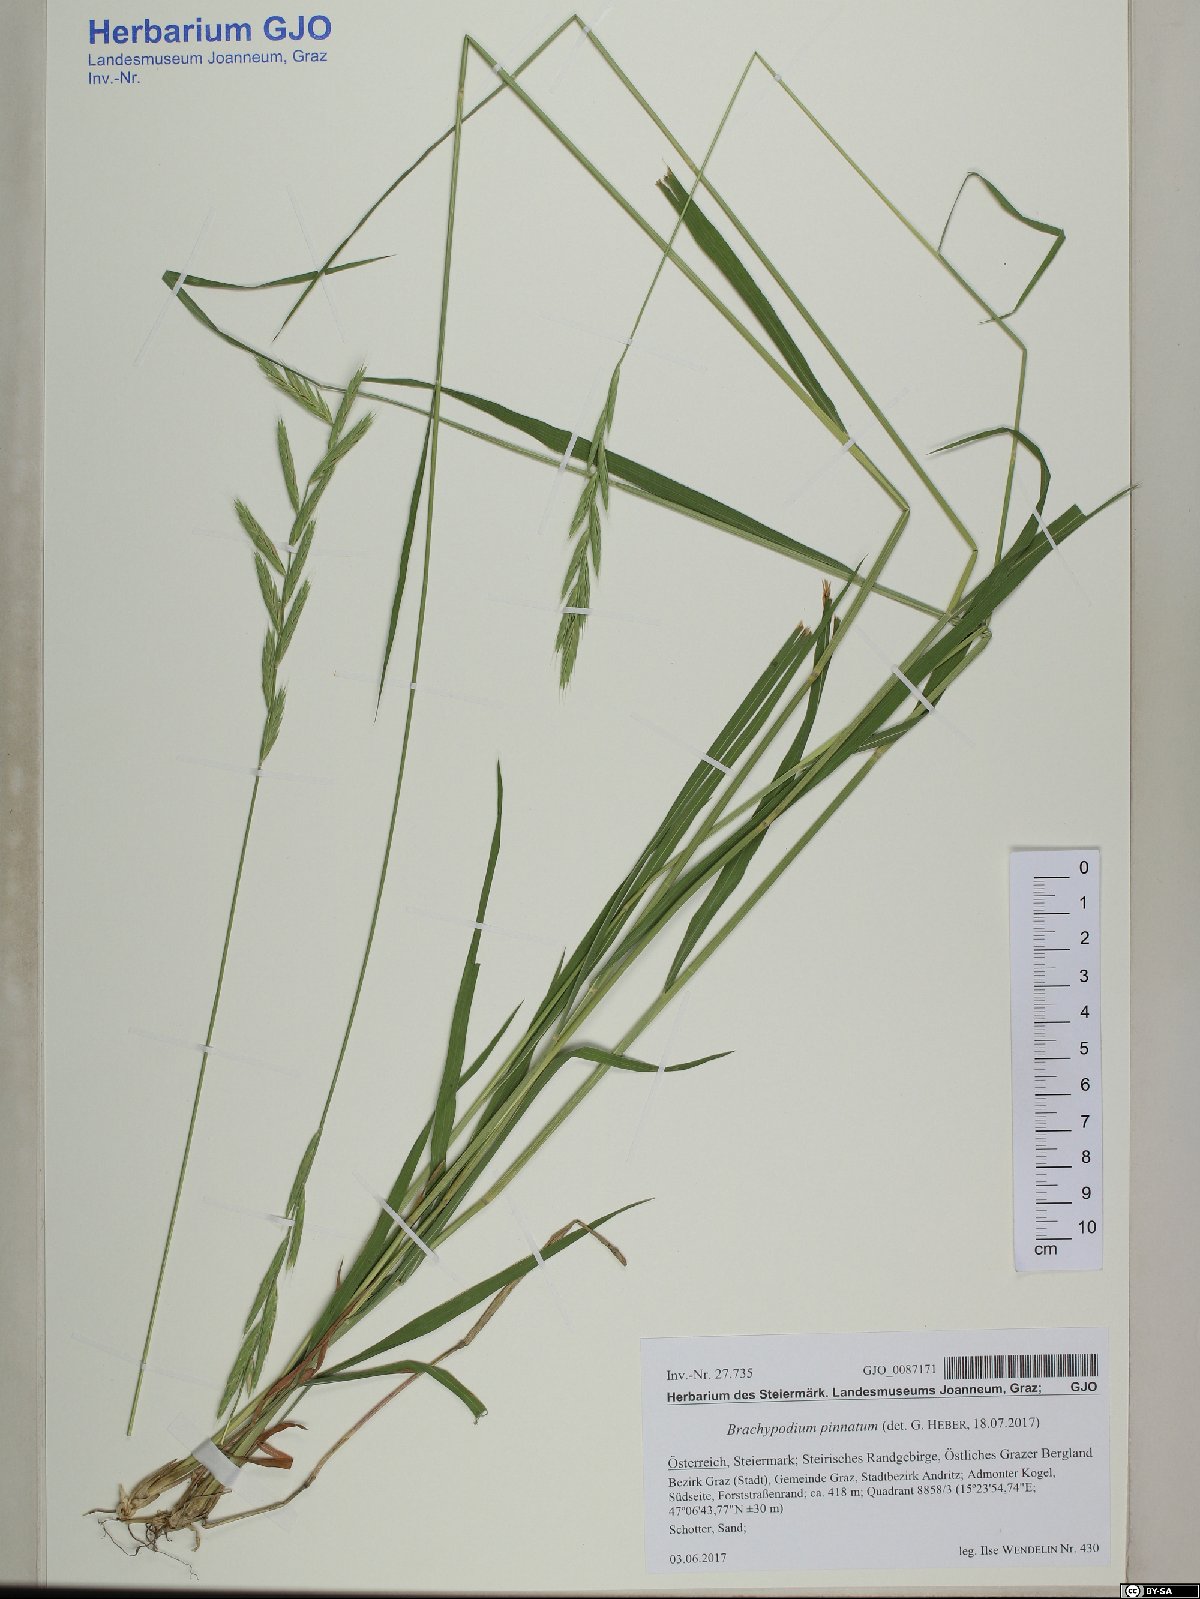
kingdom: Plantae
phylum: Tracheophyta
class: Liliopsida
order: Poales
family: Poaceae
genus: Brachypodium
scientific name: Brachypodium pinnatum
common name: Tor grass
